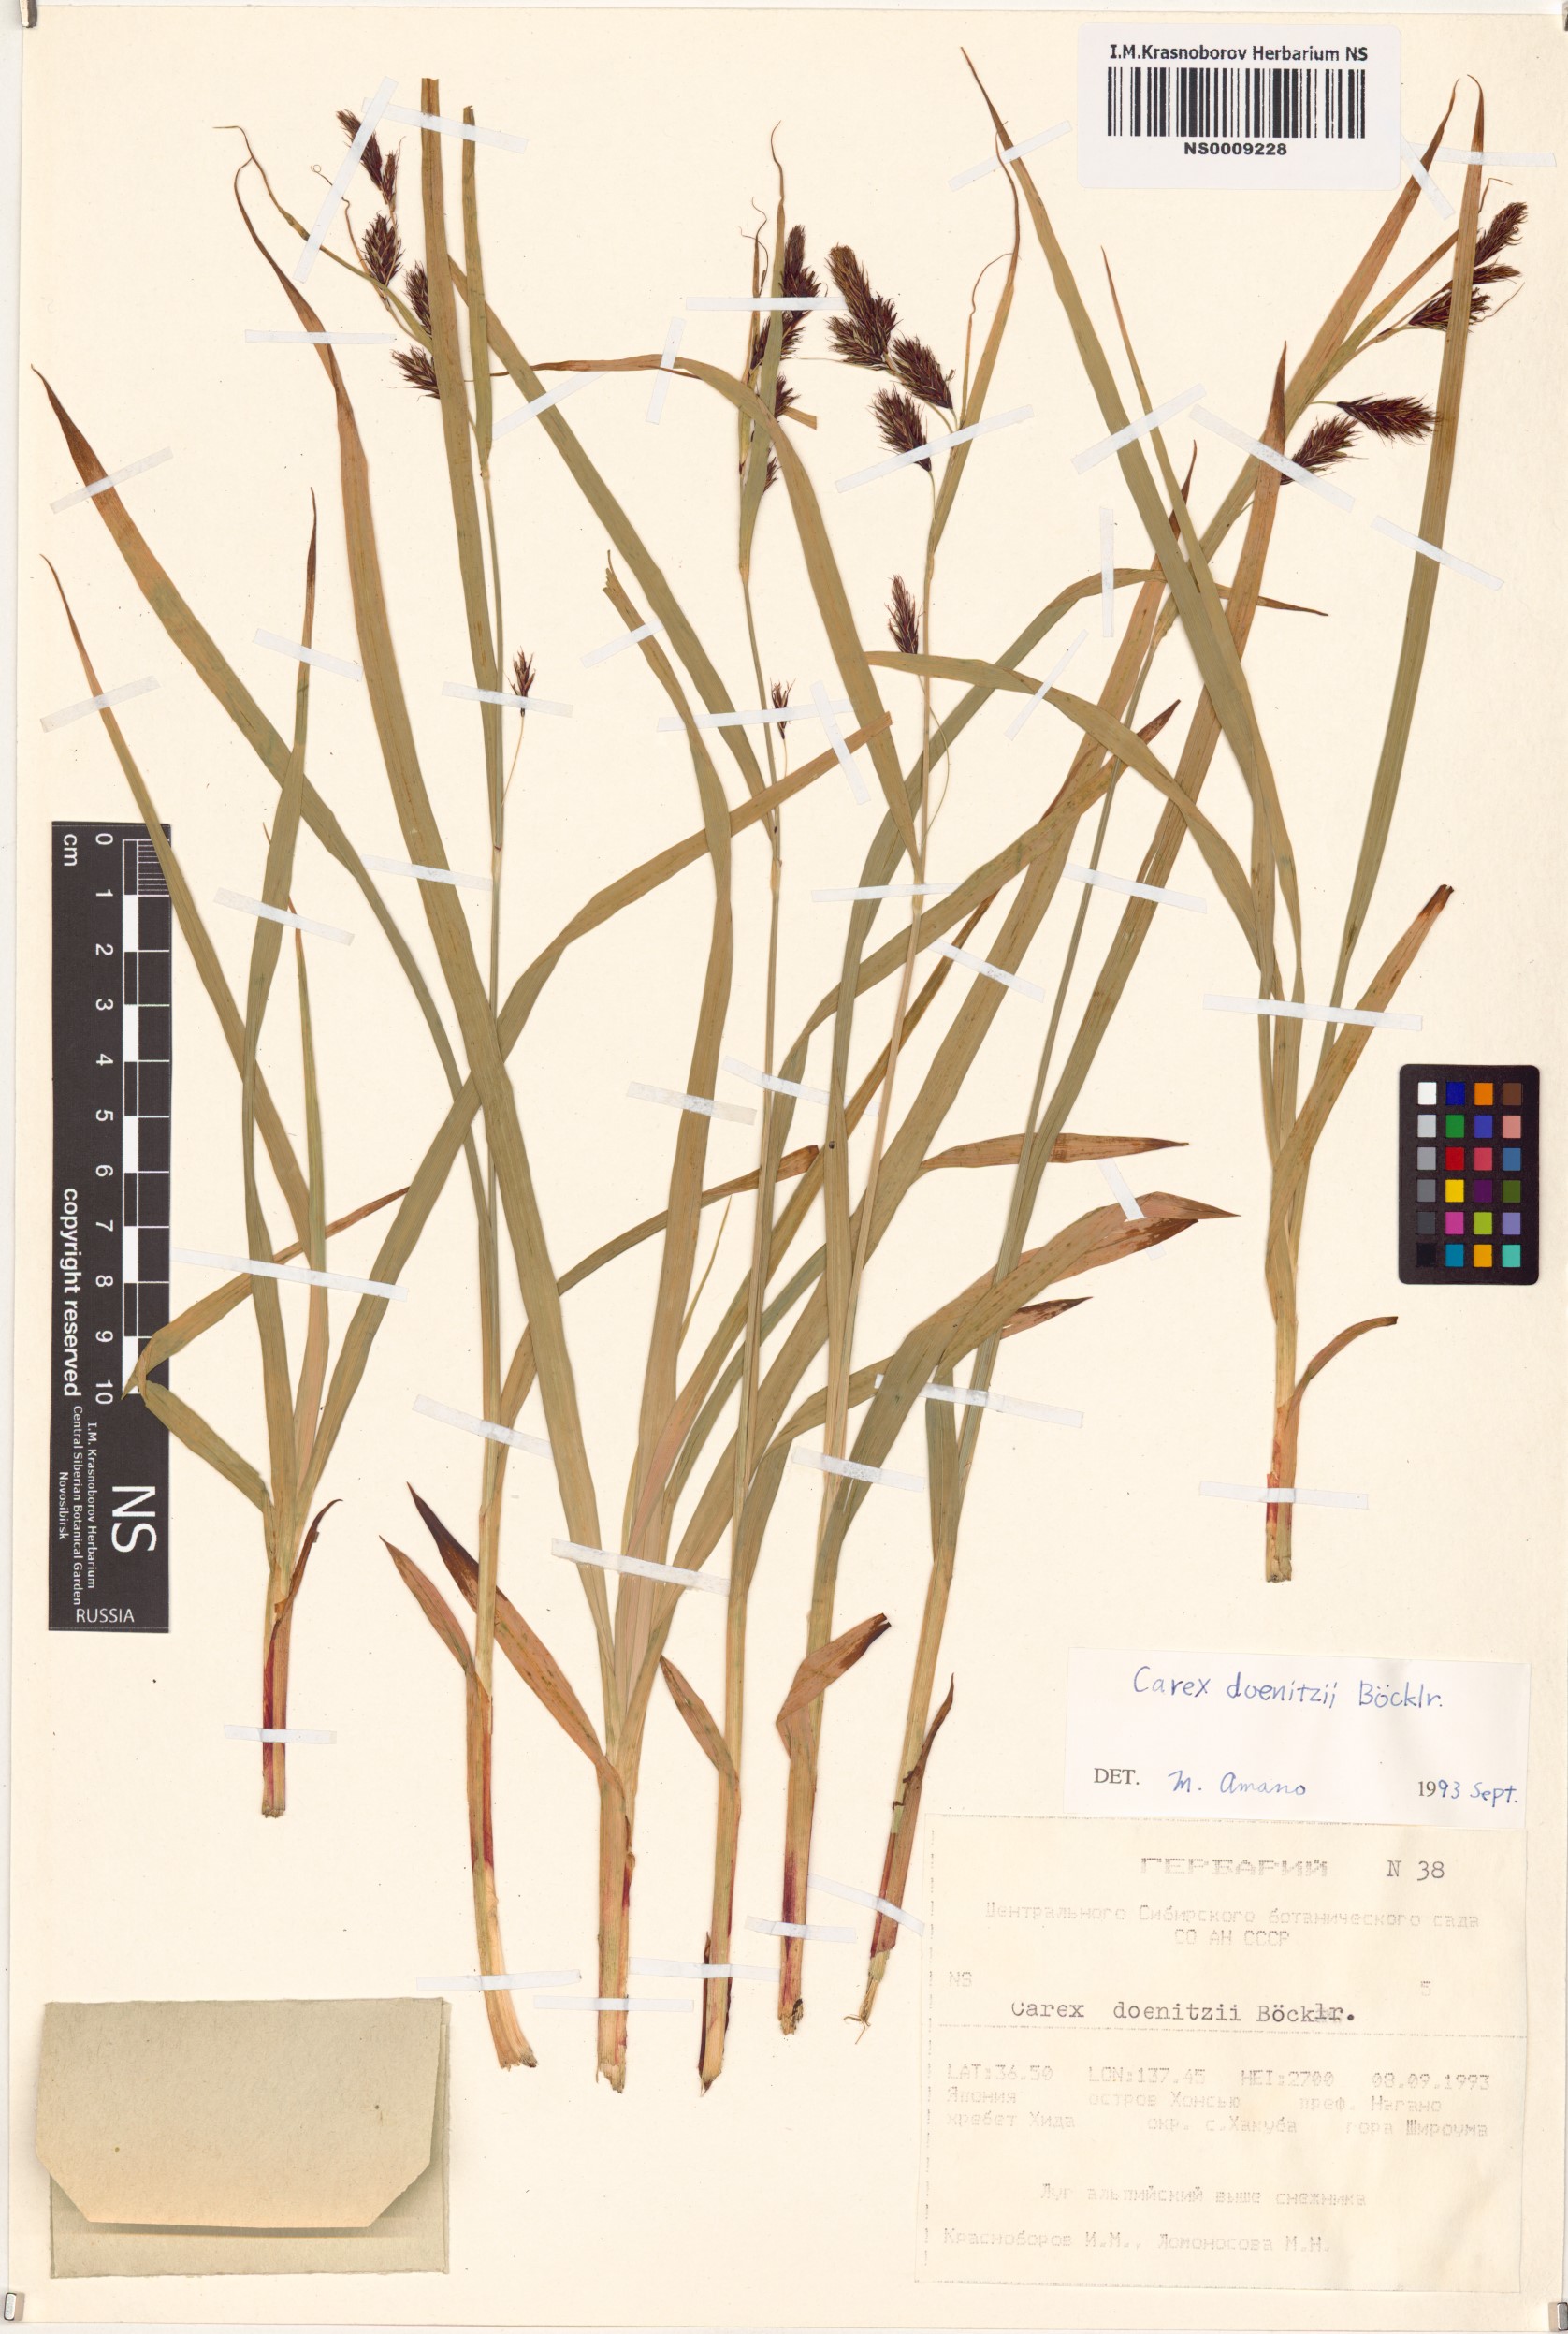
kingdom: Plantae
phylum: Tracheophyta
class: Liliopsida
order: Poales
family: Cyperaceae
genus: Carex
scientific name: Carex doenitzii
